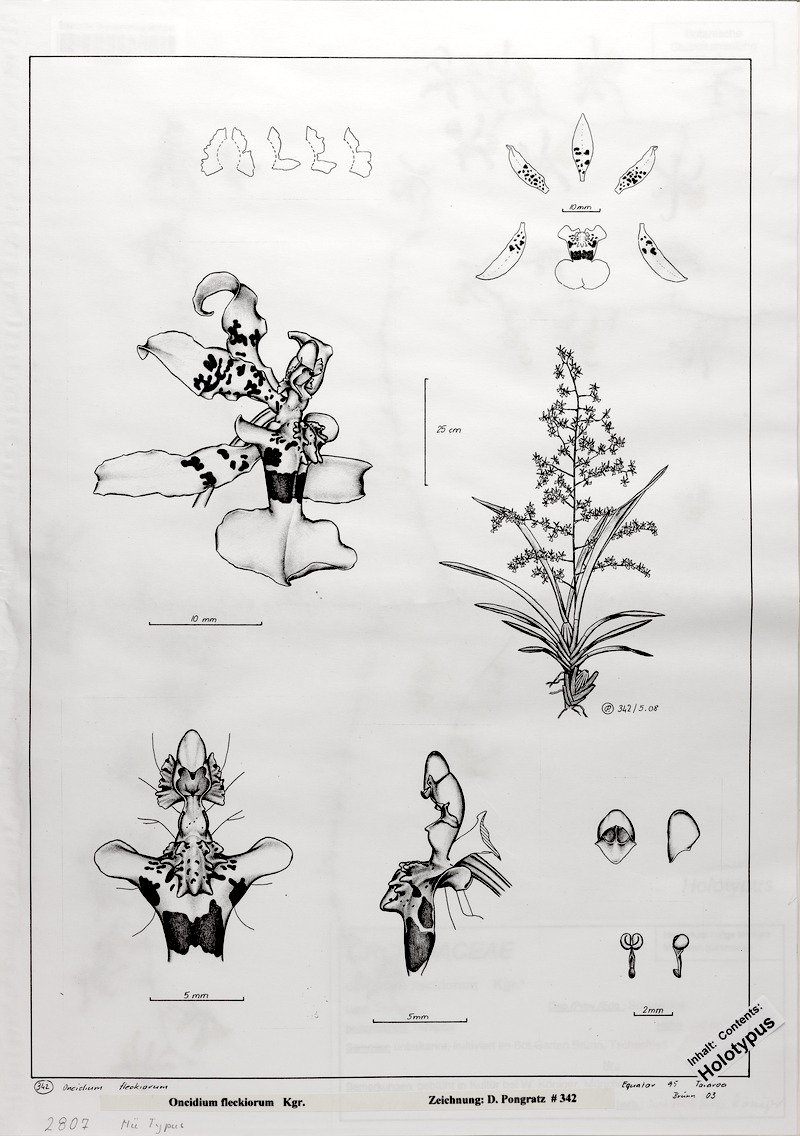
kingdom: Plantae
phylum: Tracheophyta
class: Liliopsida
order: Asparagales
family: Orchidaceae
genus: Oncidium
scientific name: Oncidium fleckiorum
